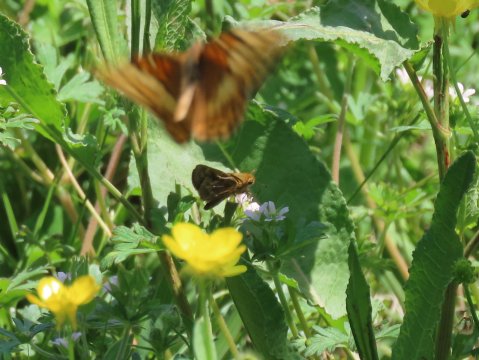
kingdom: Animalia
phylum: Arthropoda
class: Insecta
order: Lepidoptera
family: Hesperiidae
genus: Atalopedes
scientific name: Atalopedes campestris
